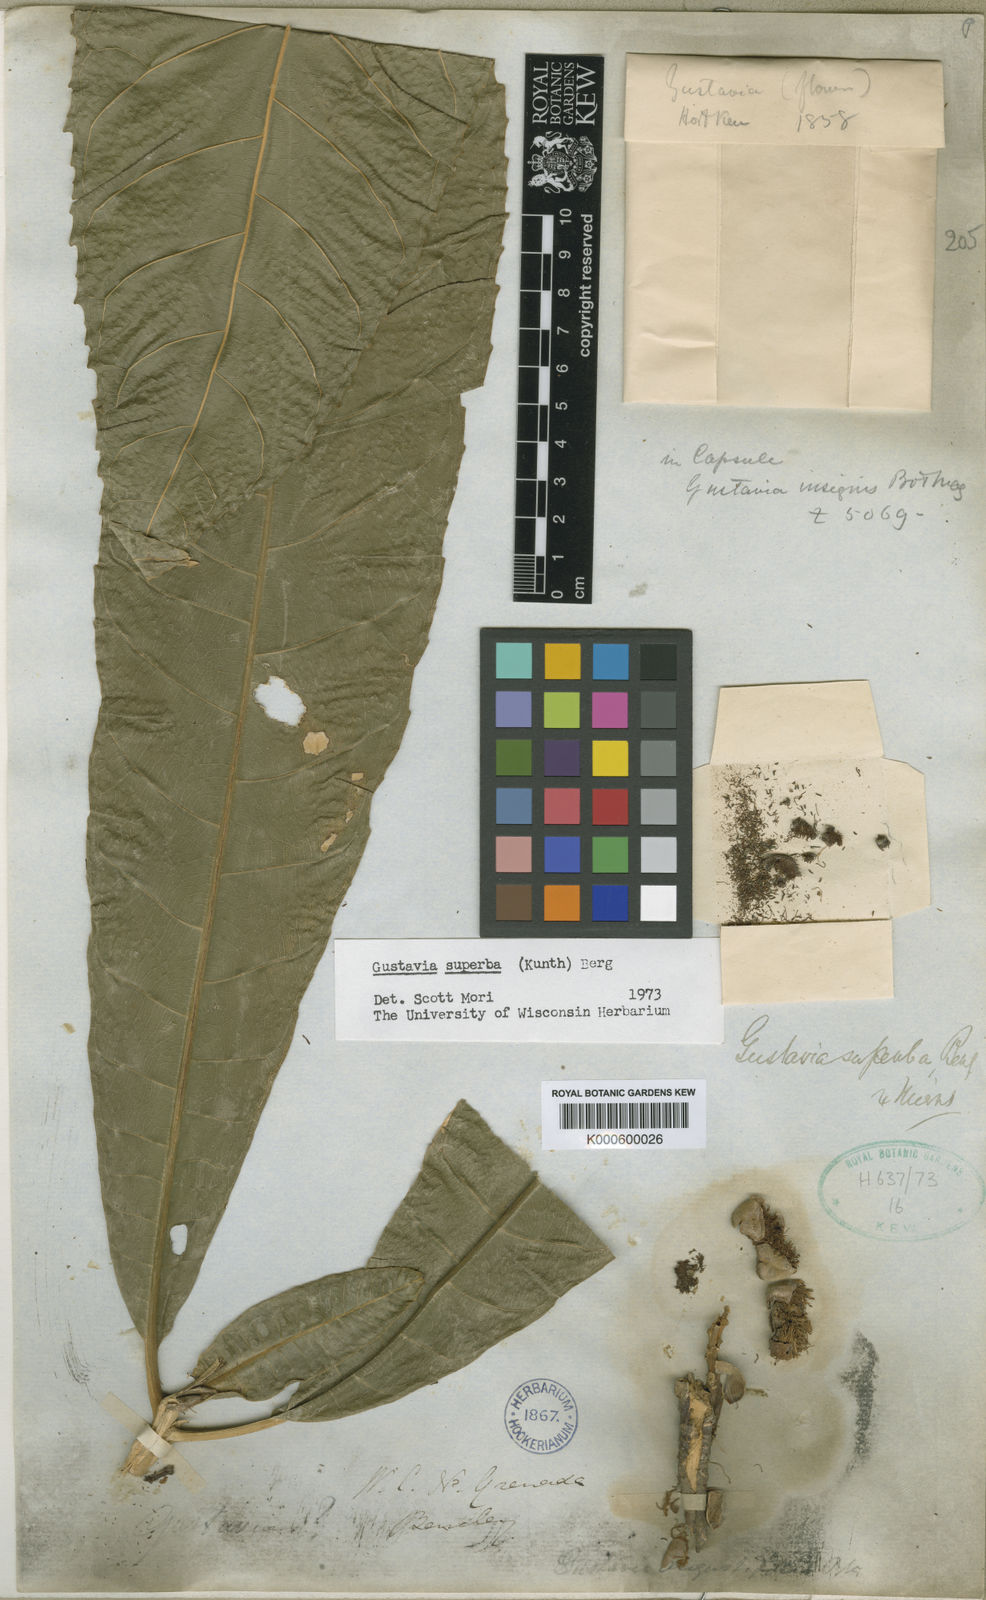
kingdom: Plantae
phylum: Tracheophyta
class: Magnoliopsida
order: Ericales
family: Lecythidaceae
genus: Gustavia
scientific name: Gustavia superba
